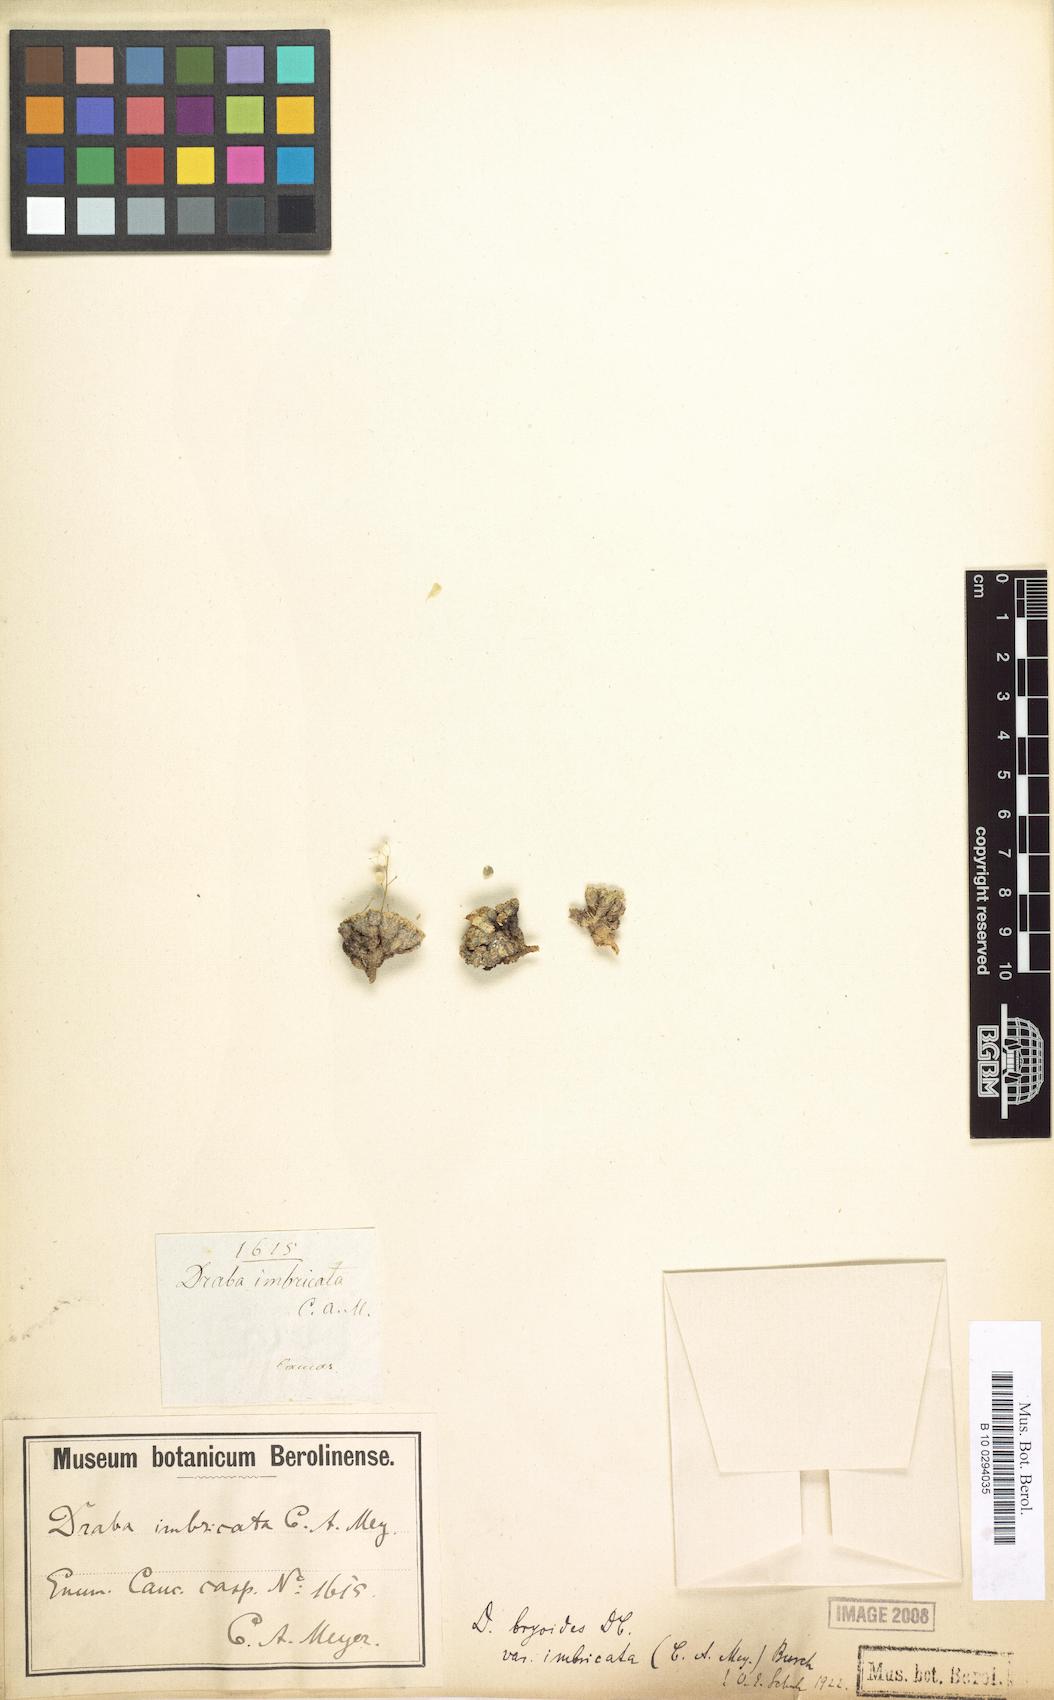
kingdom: Plantae
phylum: Tracheophyta
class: Magnoliopsida
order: Brassicales
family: Brassicaceae
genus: Draba
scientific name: Draba rigida
